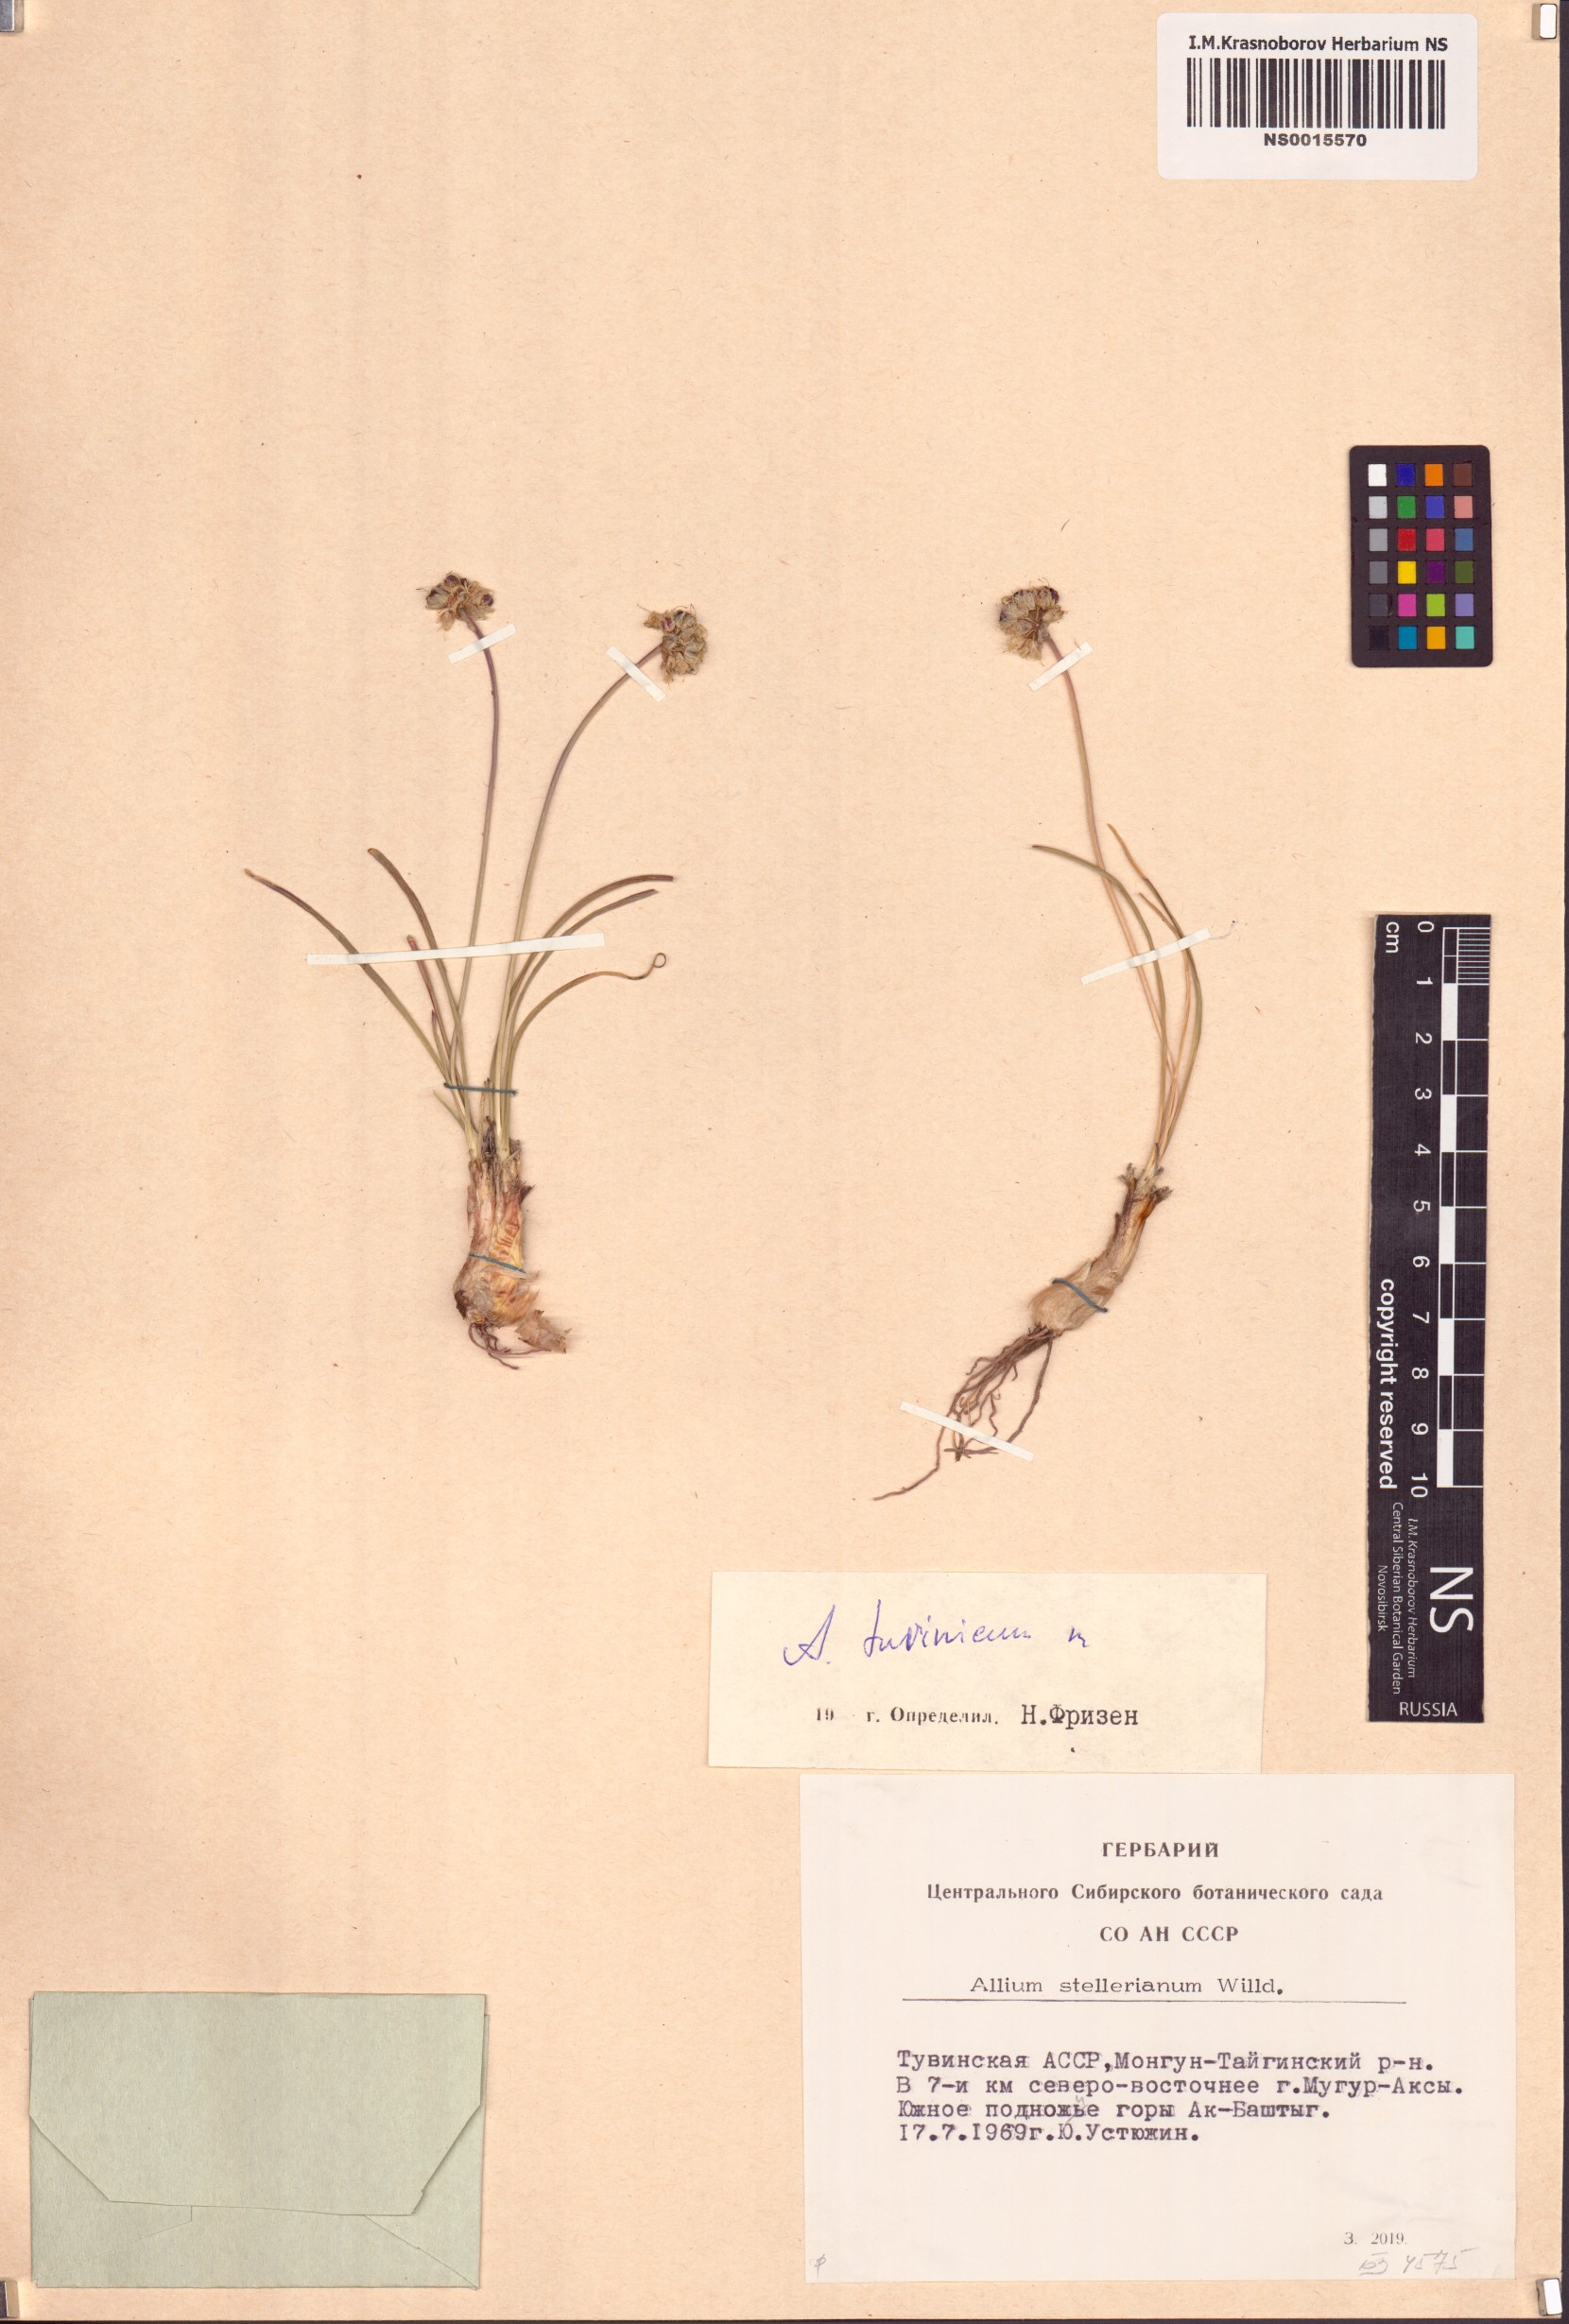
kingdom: Plantae
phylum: Tracheophyta
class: Liliopsida
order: Asparagales
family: Amaryllidaceae
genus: Allium
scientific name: Allium tuvinicum
